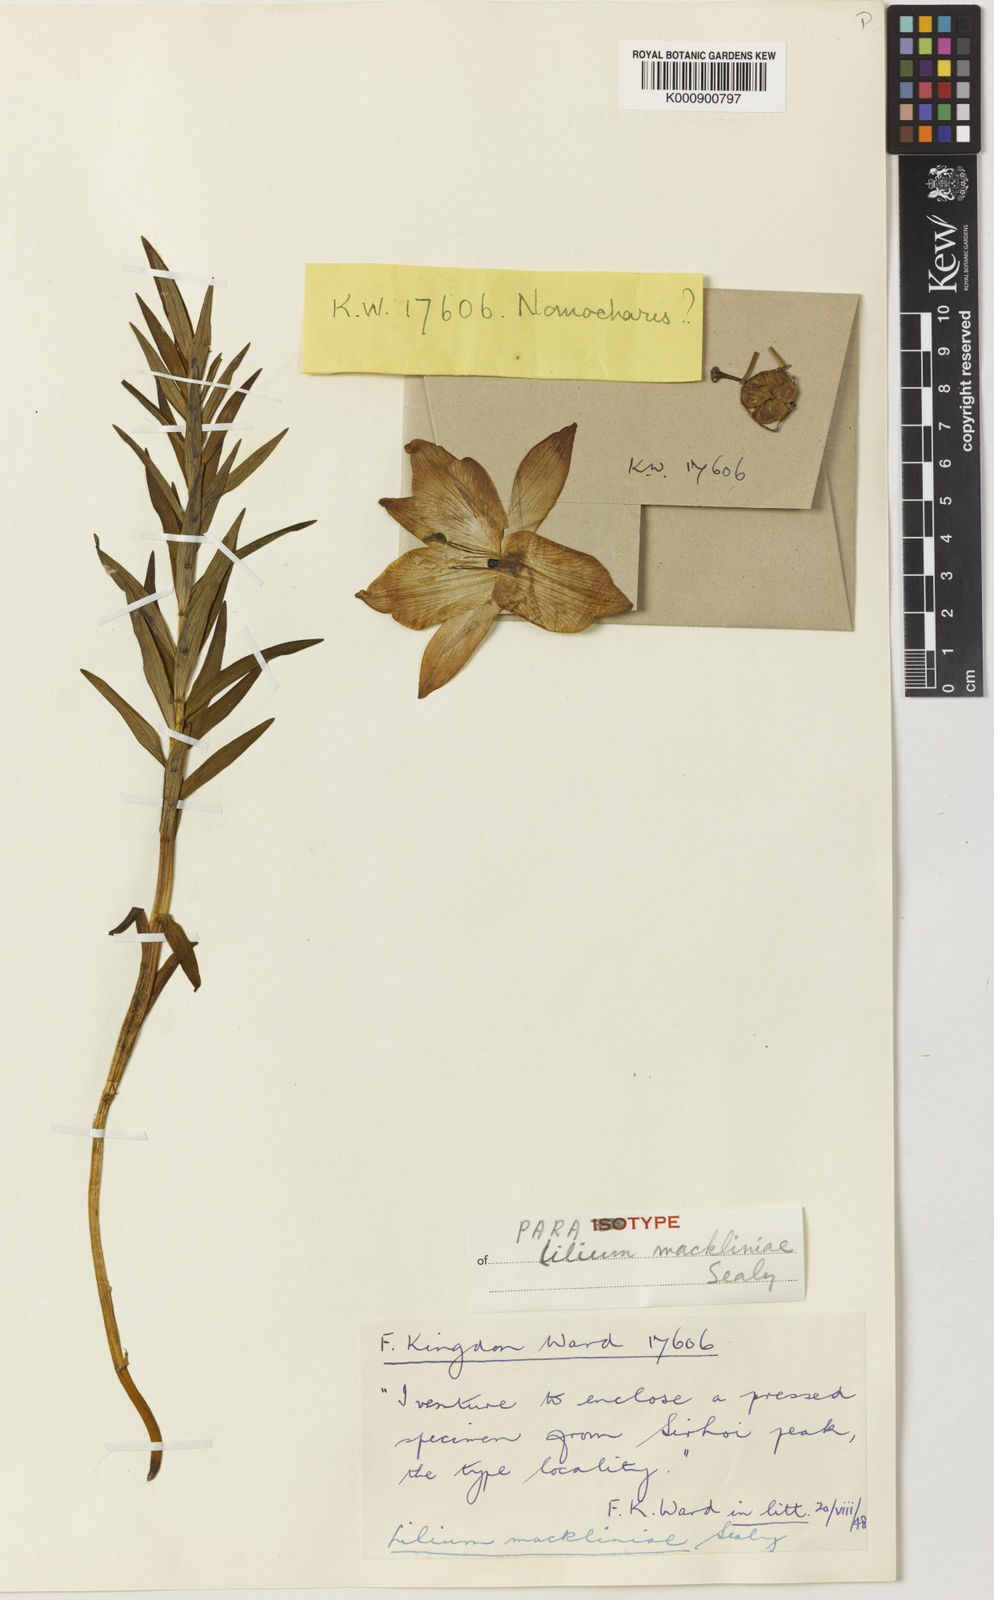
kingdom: Plantae
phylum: Tracheophyta
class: Liliopsida
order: Liliales
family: Liliaceae
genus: Lilium
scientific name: Lilium mackliniae
